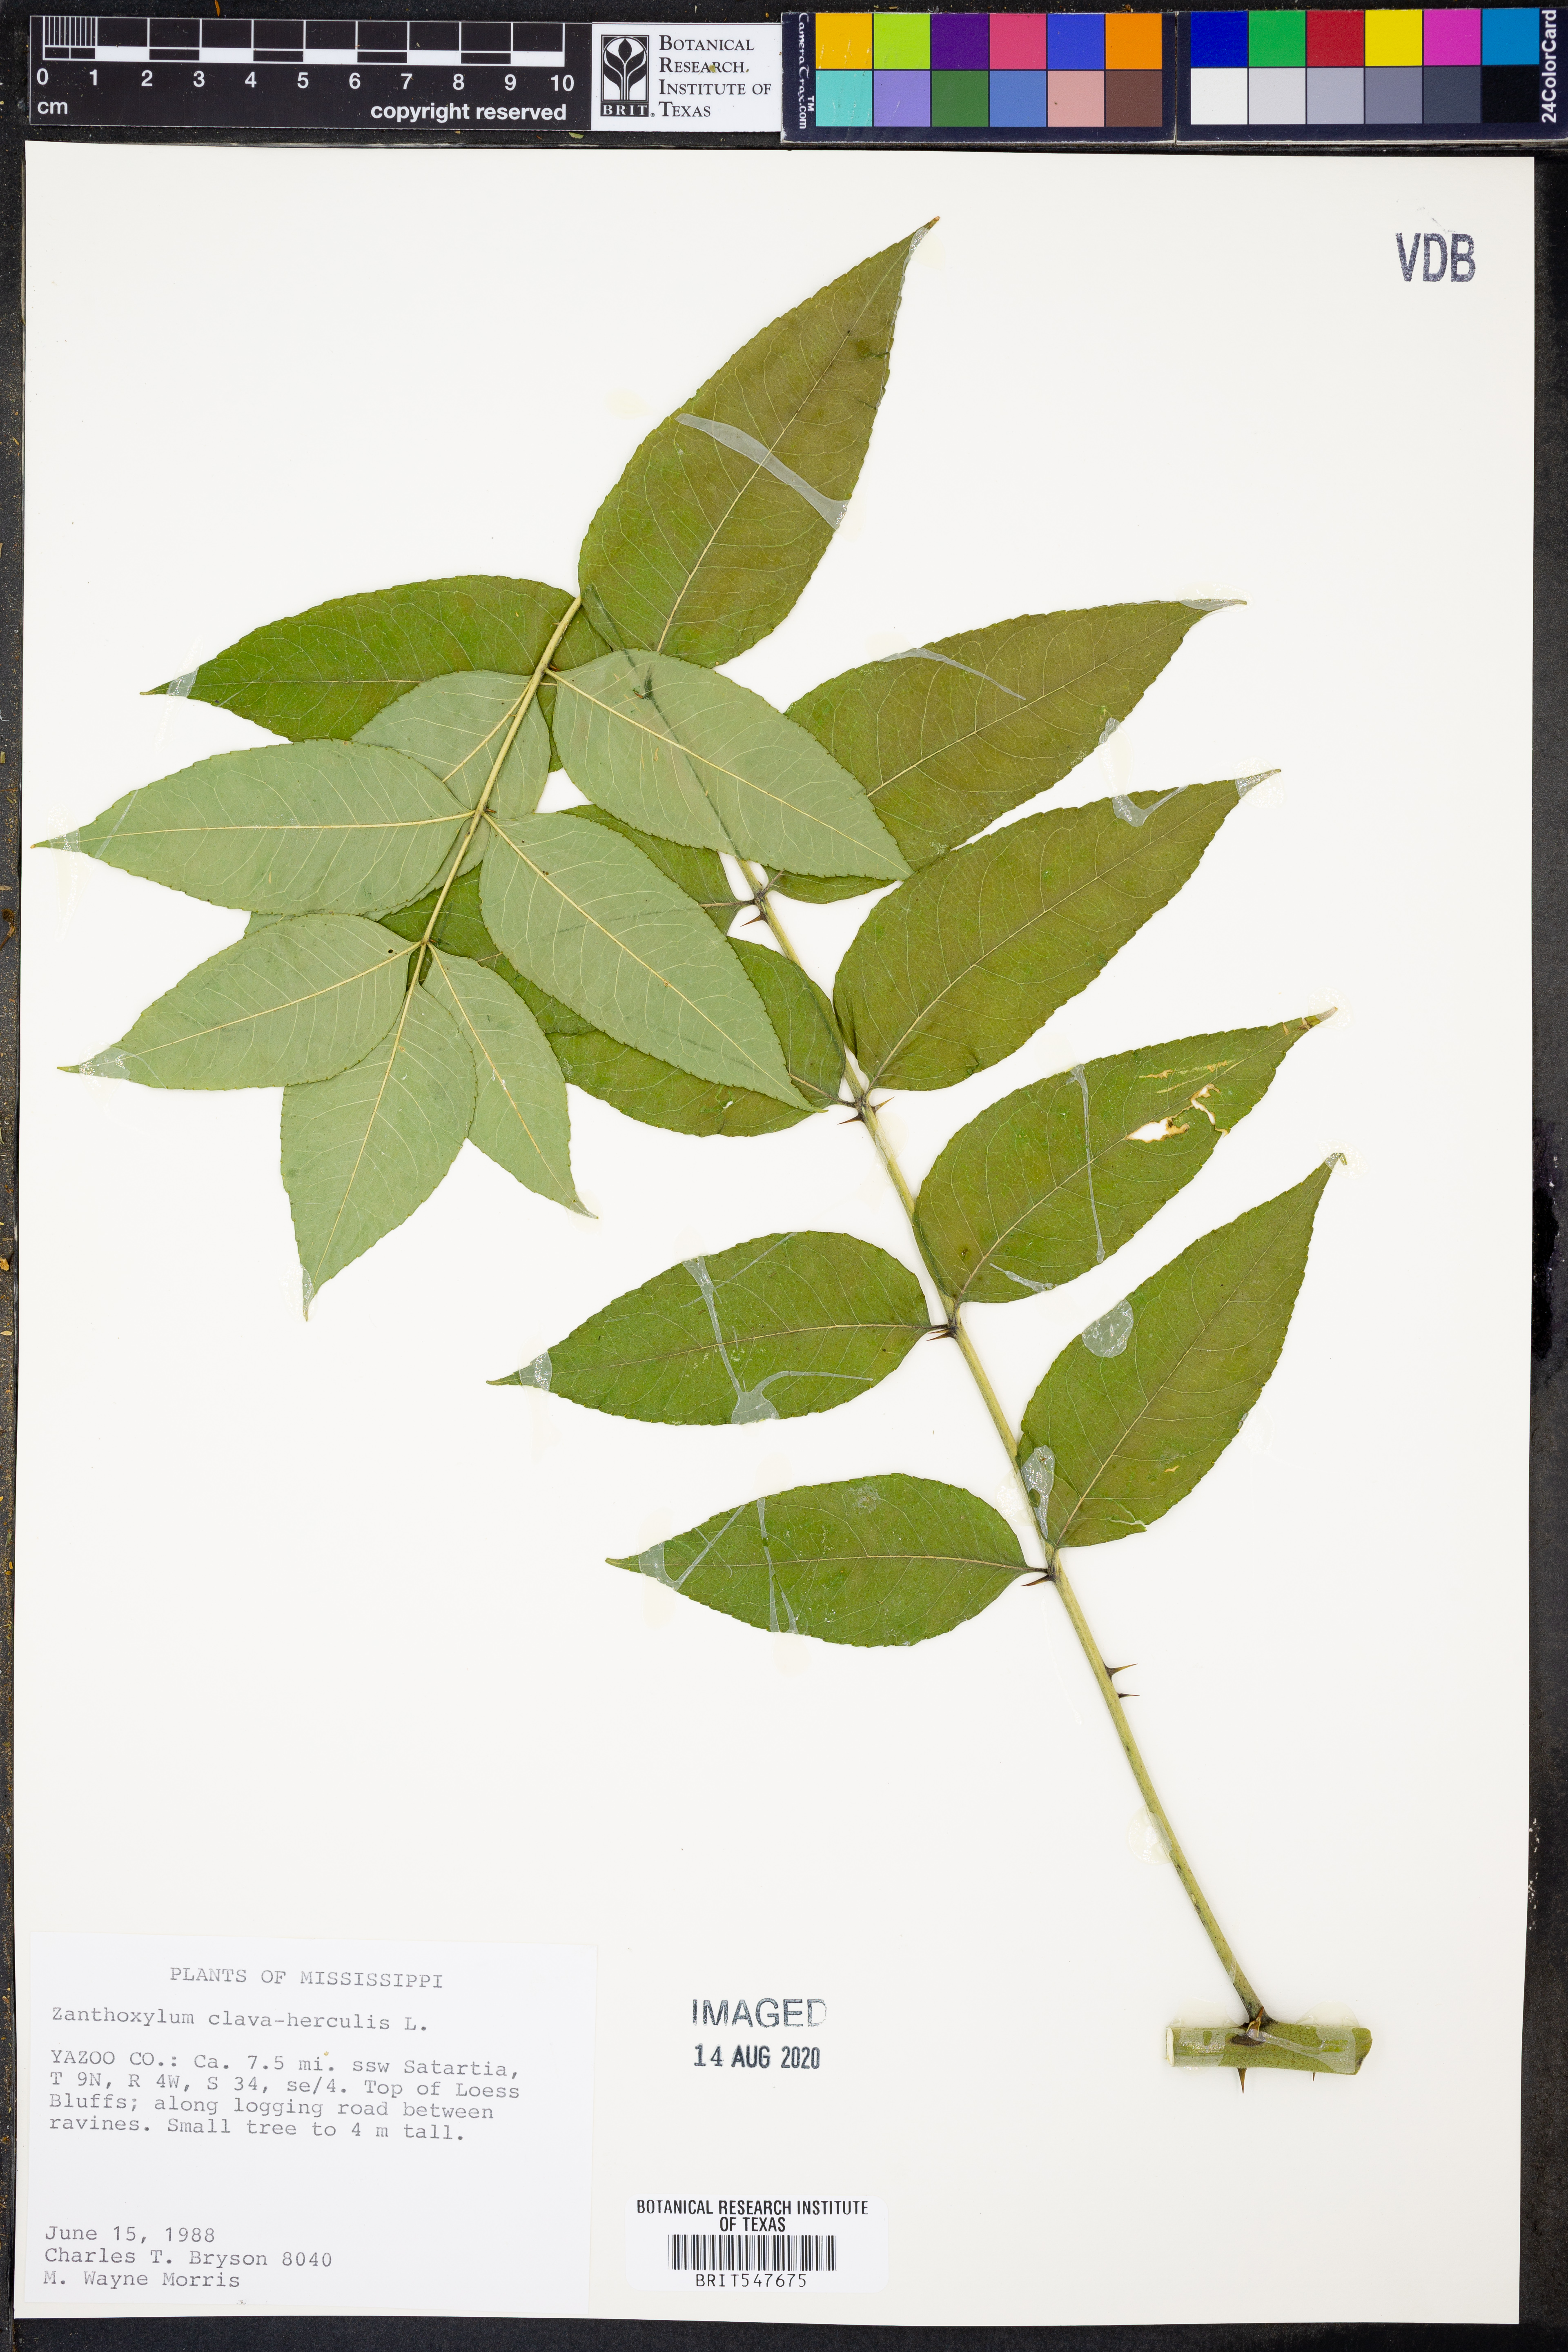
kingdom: Plantae
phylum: Tracheophyta
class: Magnoliopsida
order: Sapindales
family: Rutaceae
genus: Zanthoxylum
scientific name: Zanthoxylum avicennae
